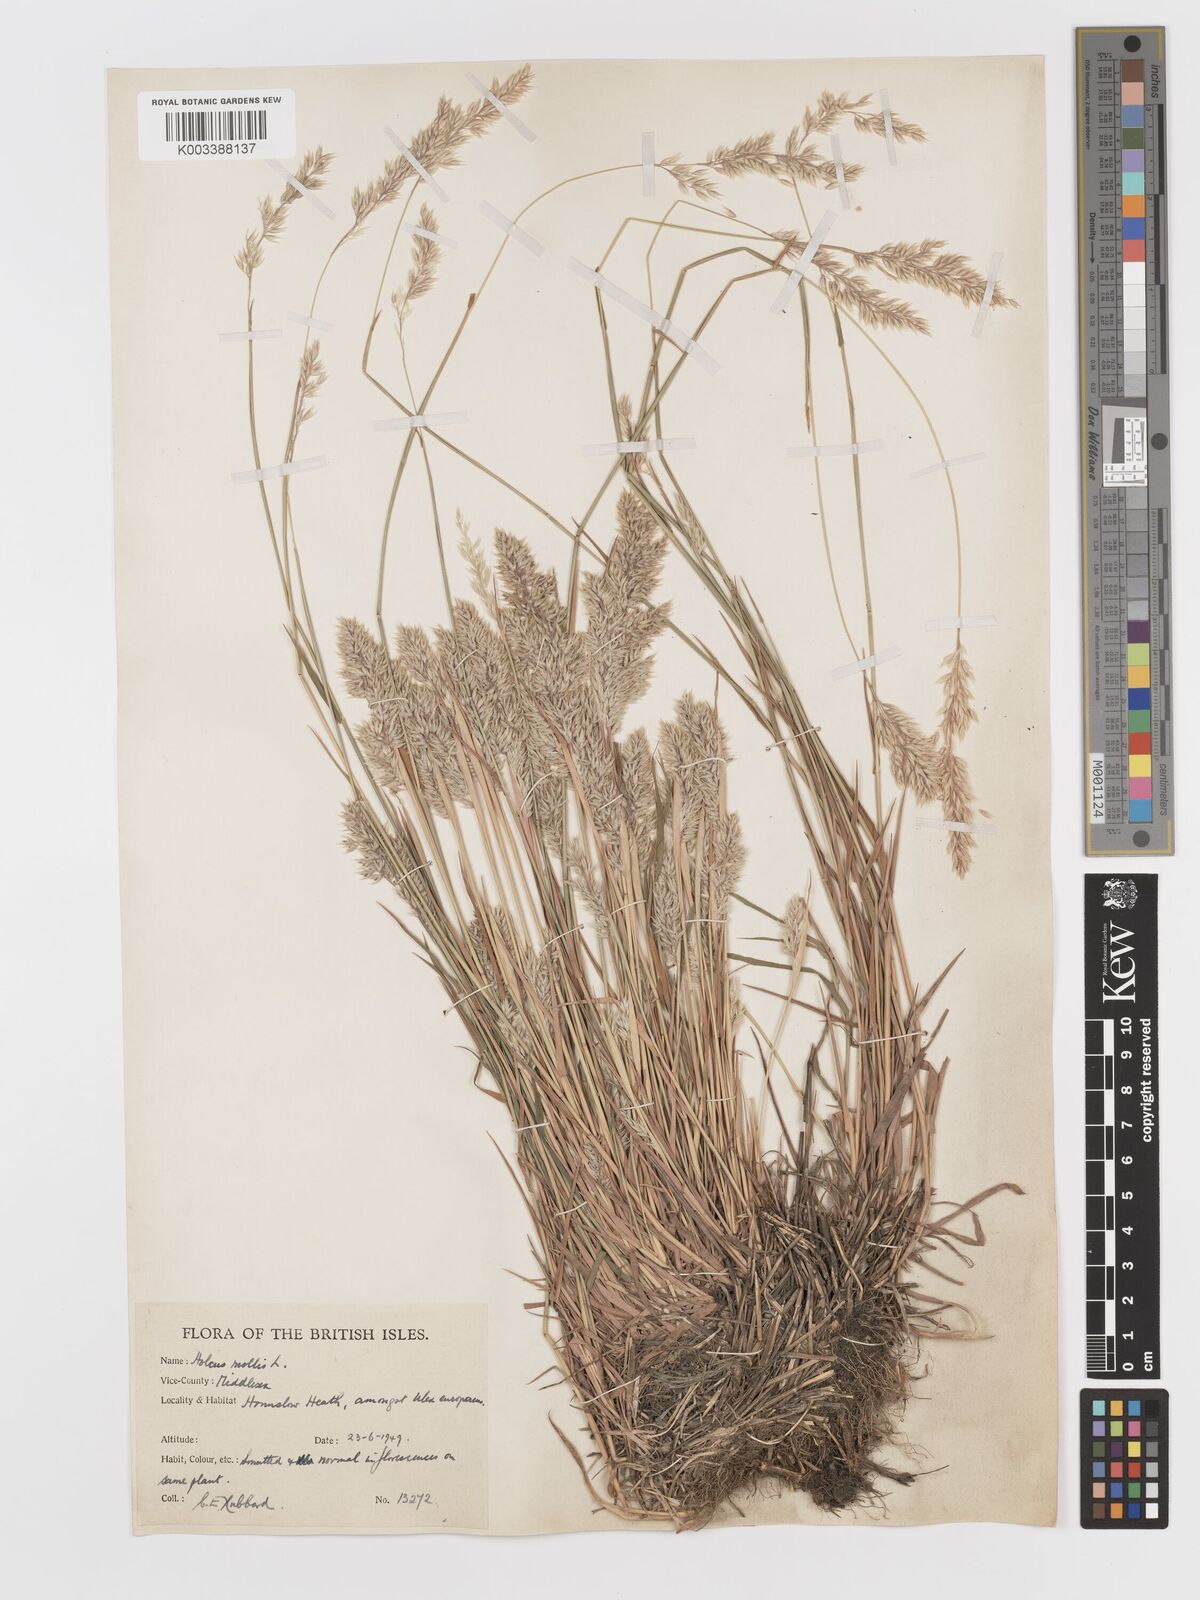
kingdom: Plantae
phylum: Tracheophyta
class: Liliopsida
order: Poales
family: Poaceae
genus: Holcus
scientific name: Holcus mollis
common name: Creeping velvetgrass
